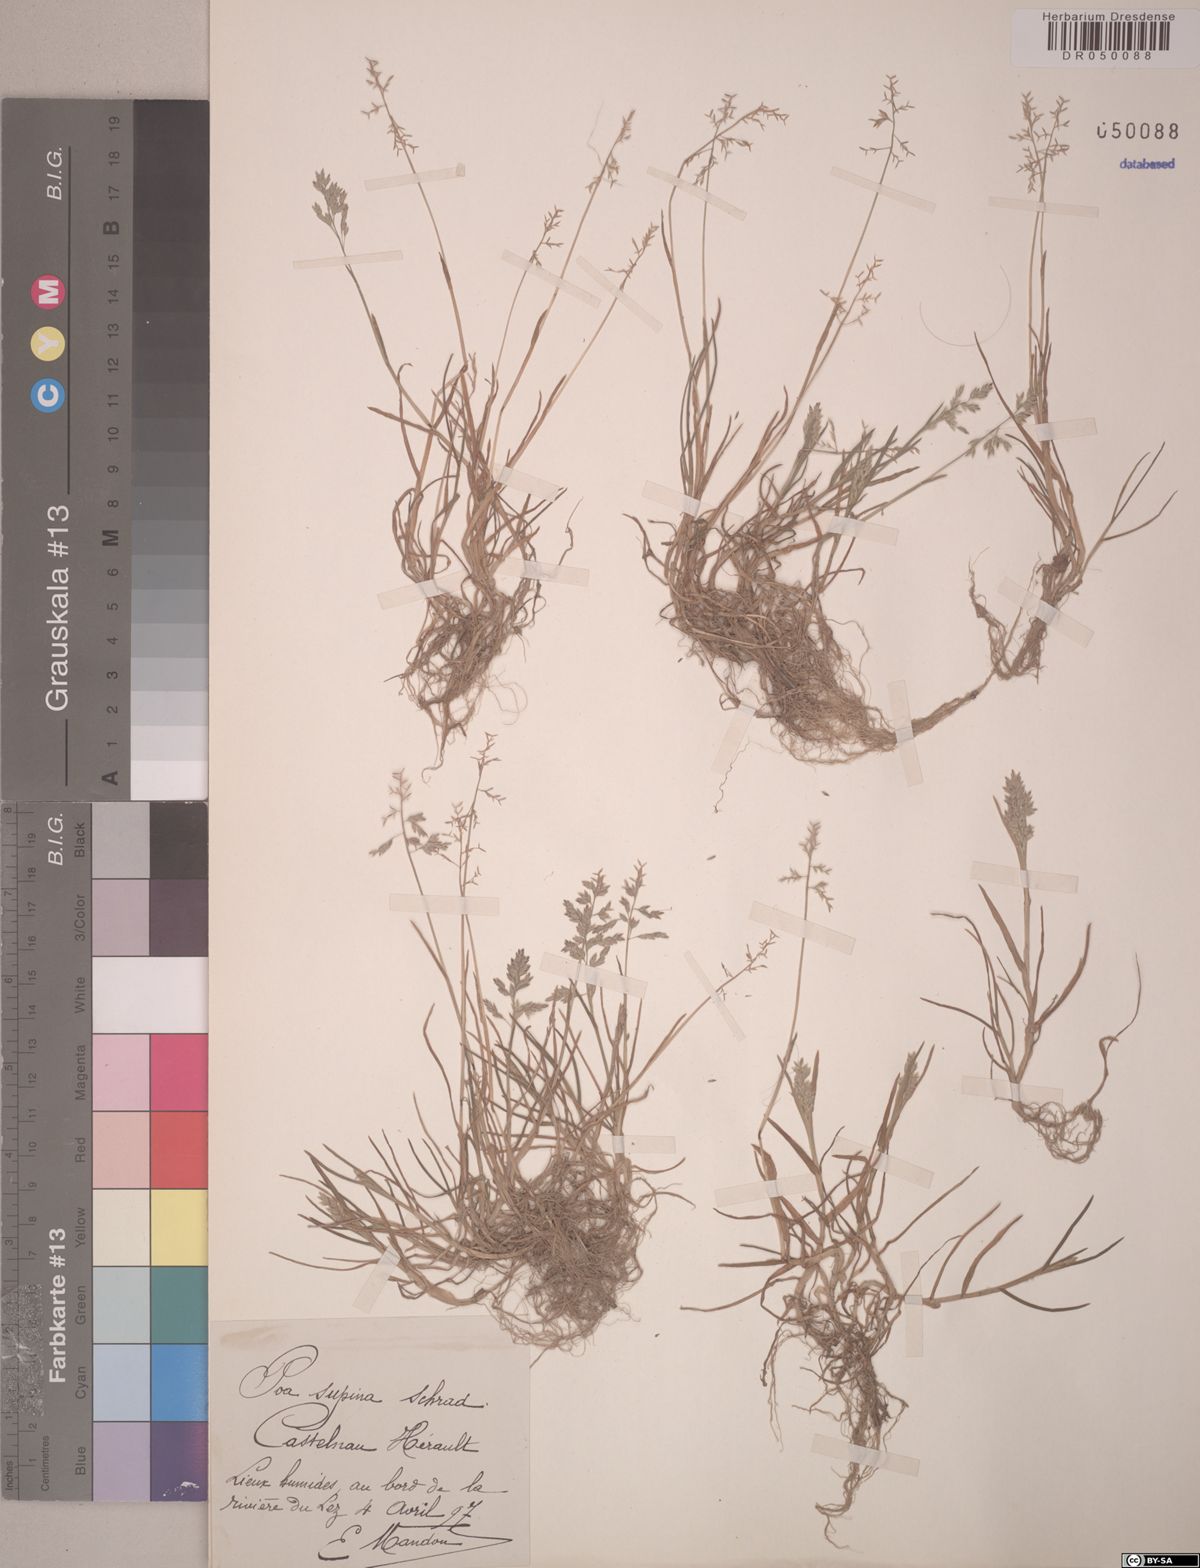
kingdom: Plantae
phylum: Tracheophyta
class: Liliopsida
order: Poales
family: Poaceae
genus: Poa
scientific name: Poa supina
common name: Supina bluegrass
